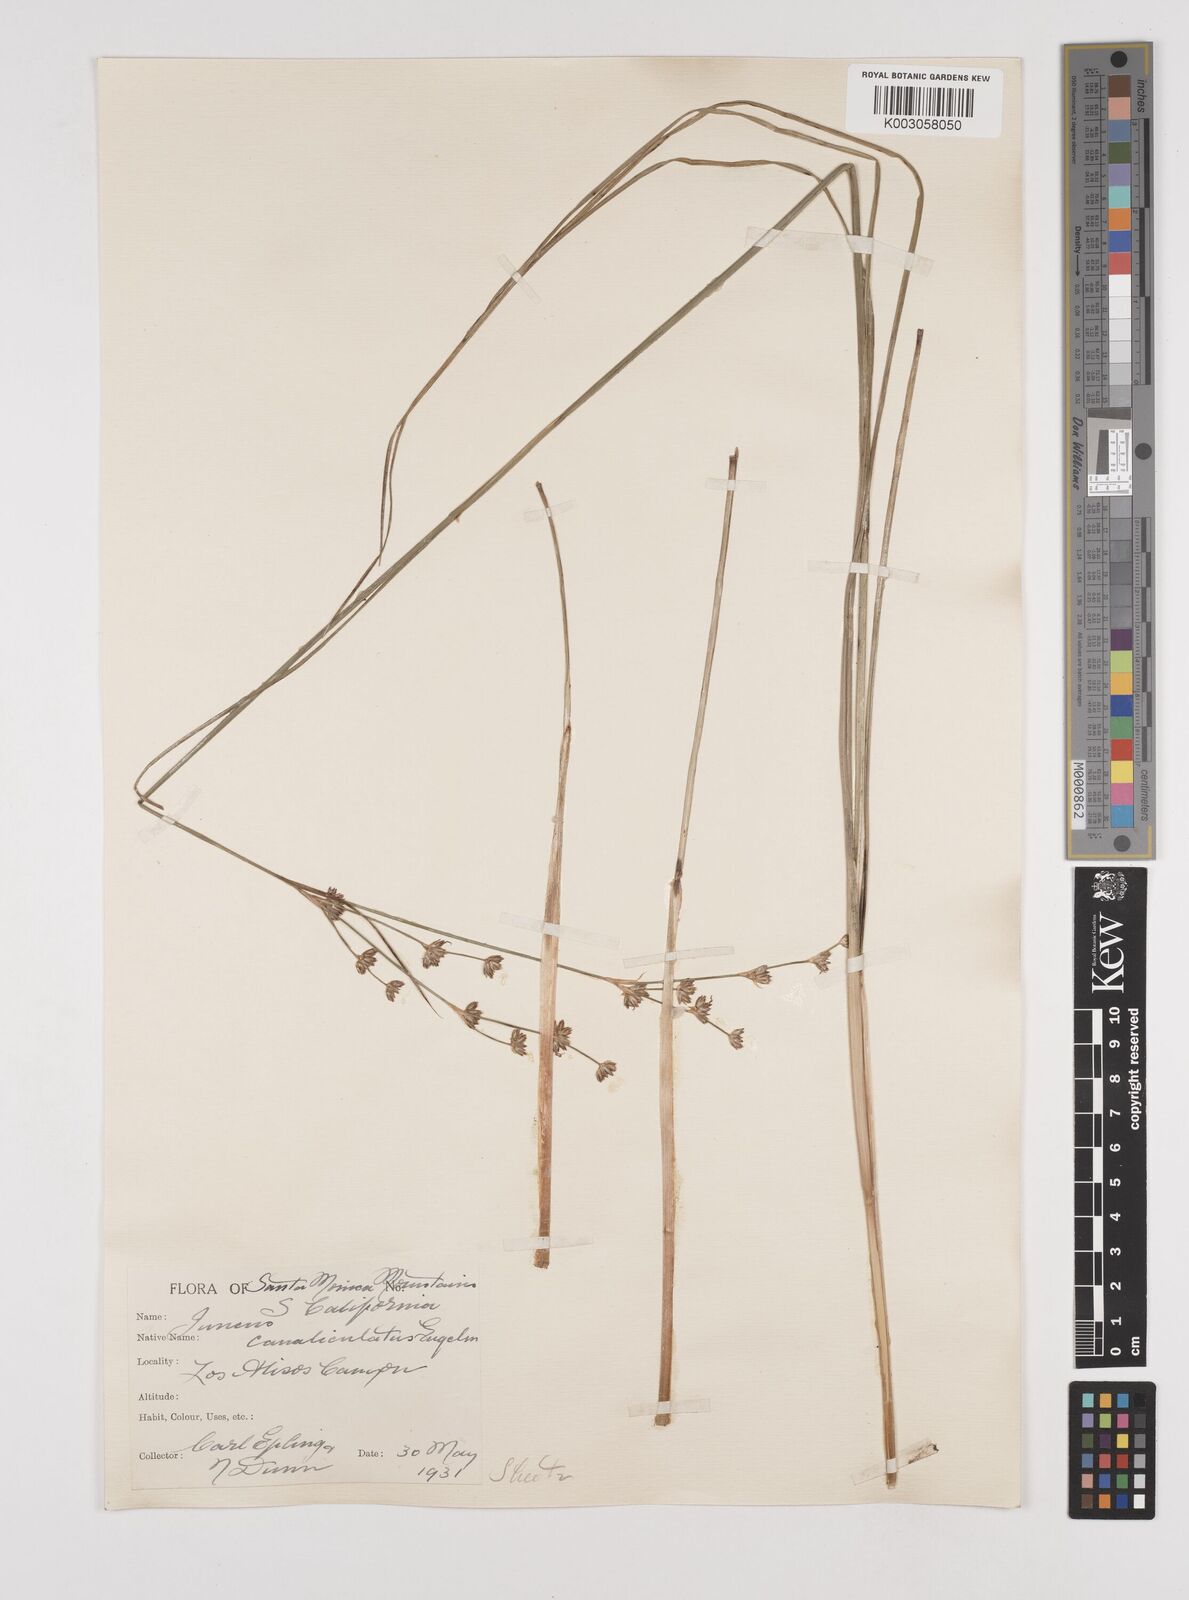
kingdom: Plantae
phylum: Tracheophyta
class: Liliopsida
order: Poales
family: Juncaceae
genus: Juncus
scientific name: Juncus macrophyllus
